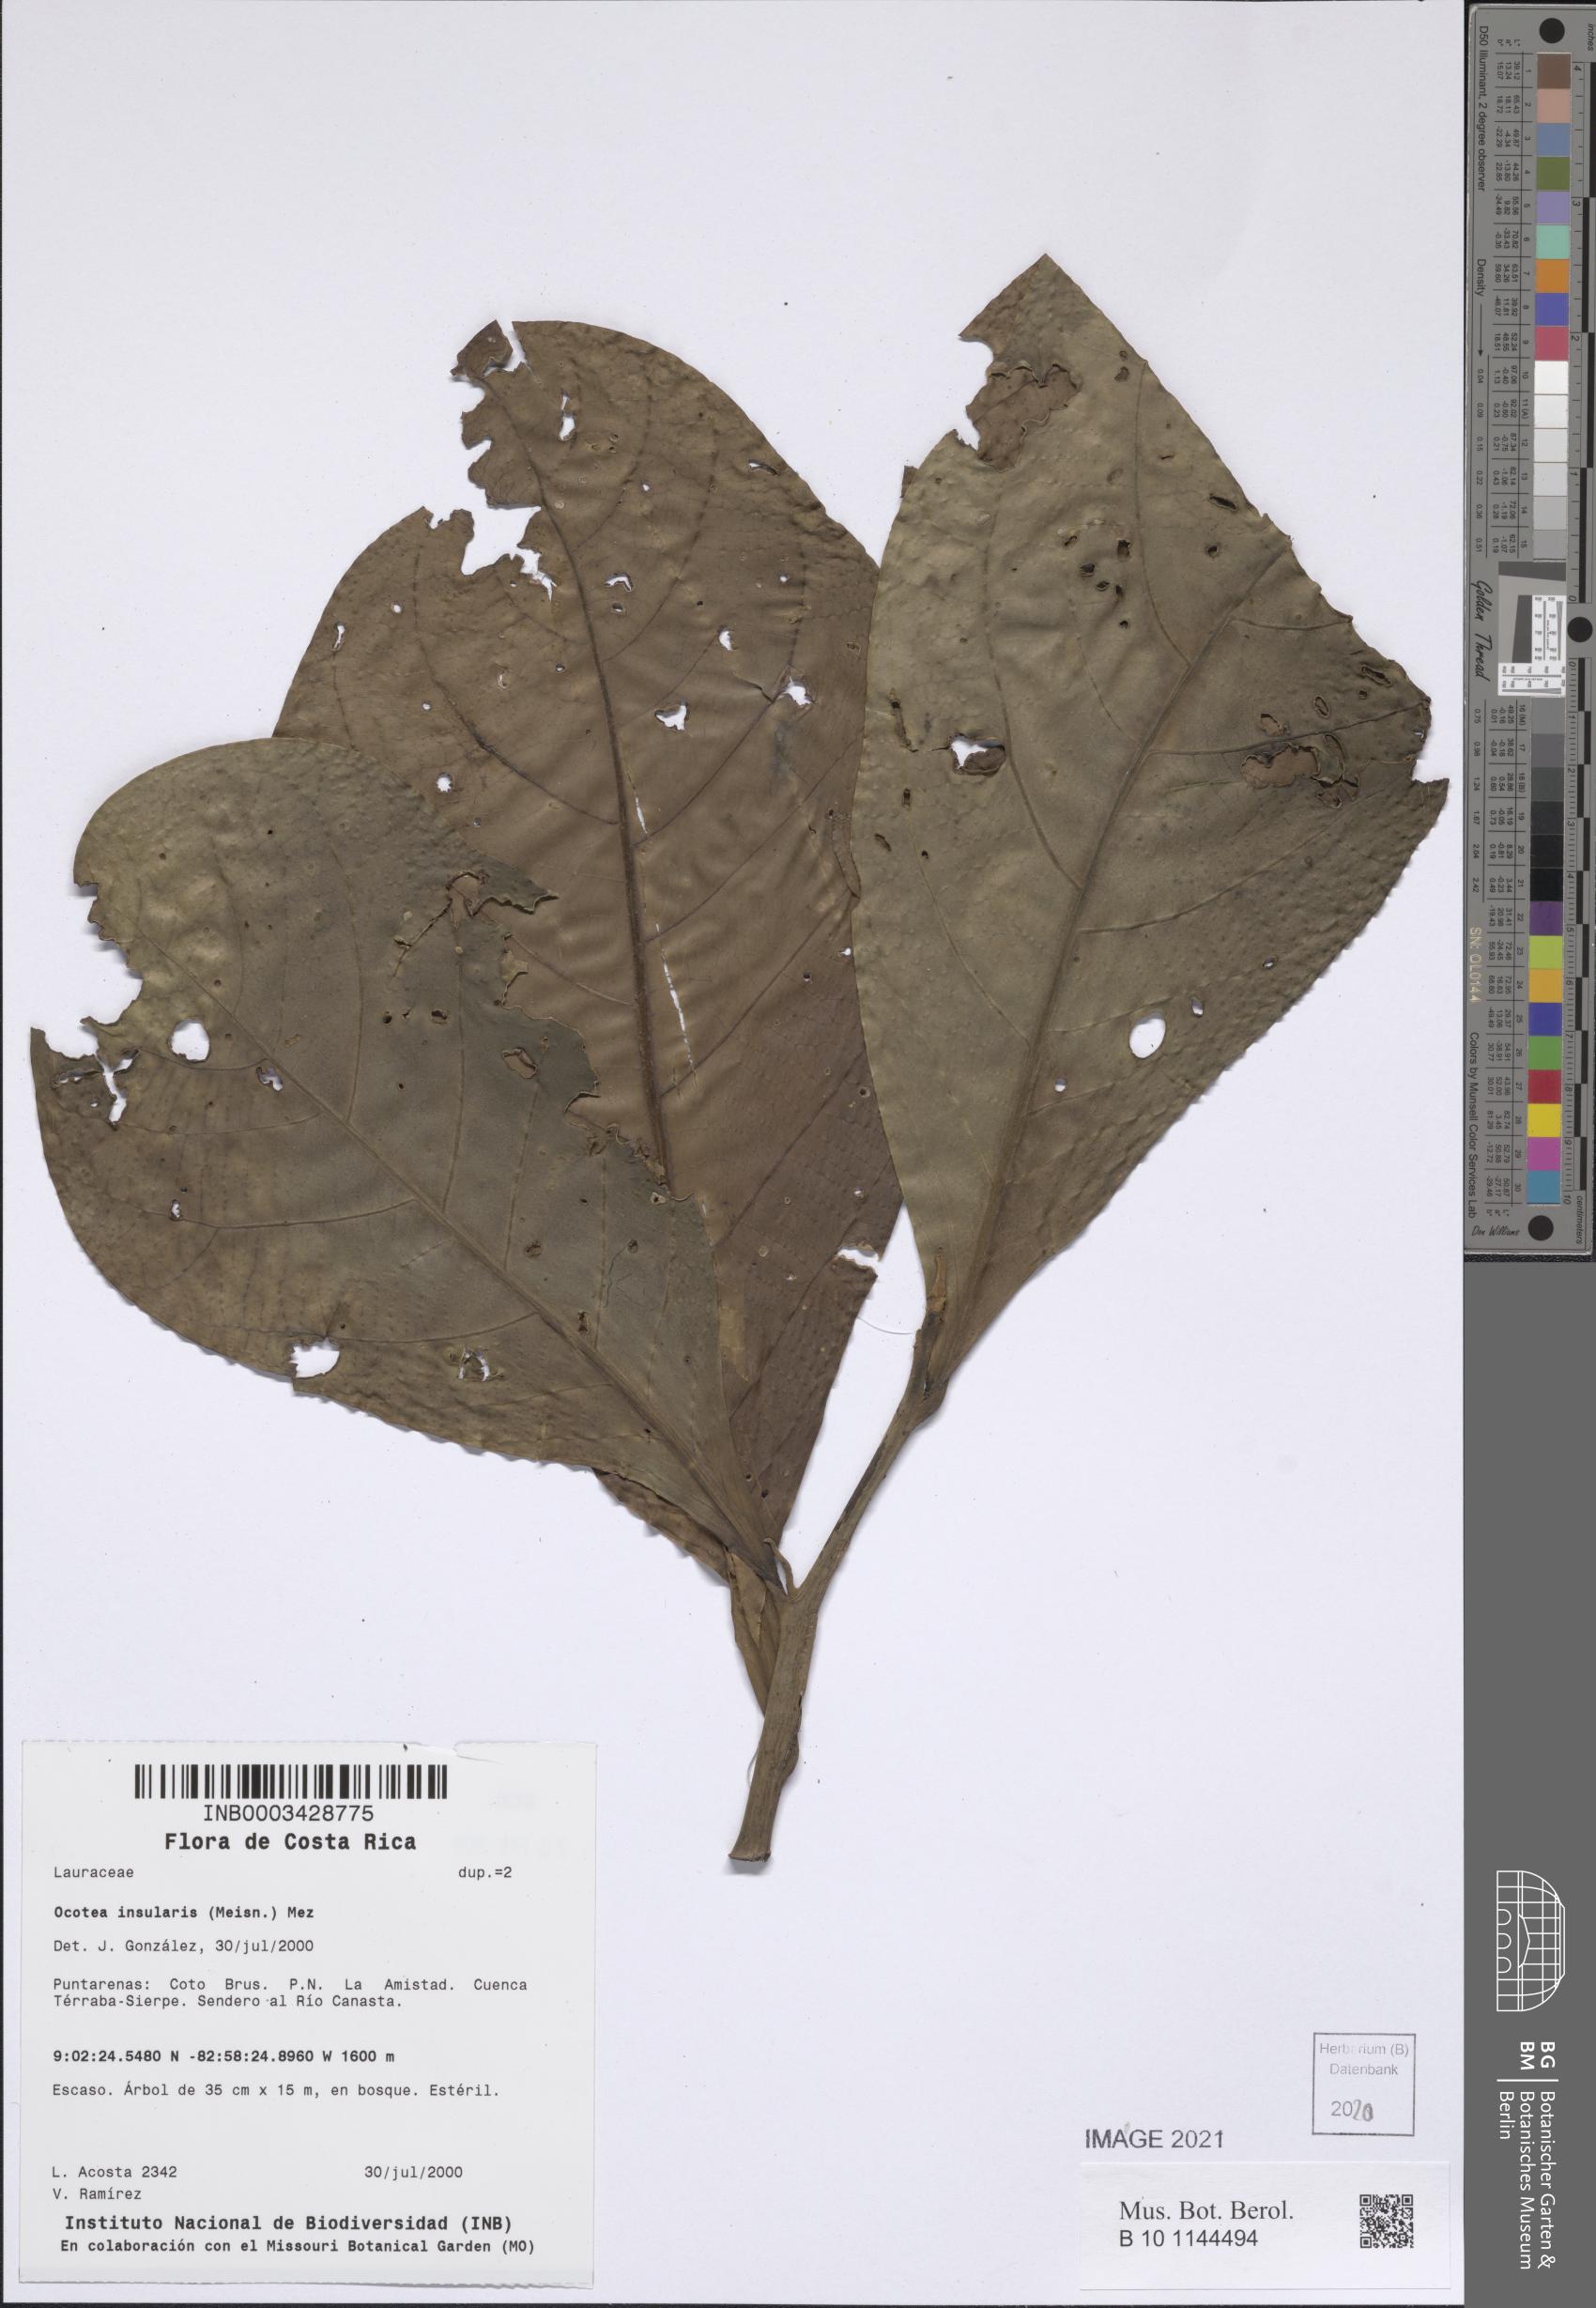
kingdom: Plantae
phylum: Tracheophyta
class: Magnoliopsida
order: Laurales
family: Lauraceae
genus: Ocotea
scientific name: Ocotea insularis
